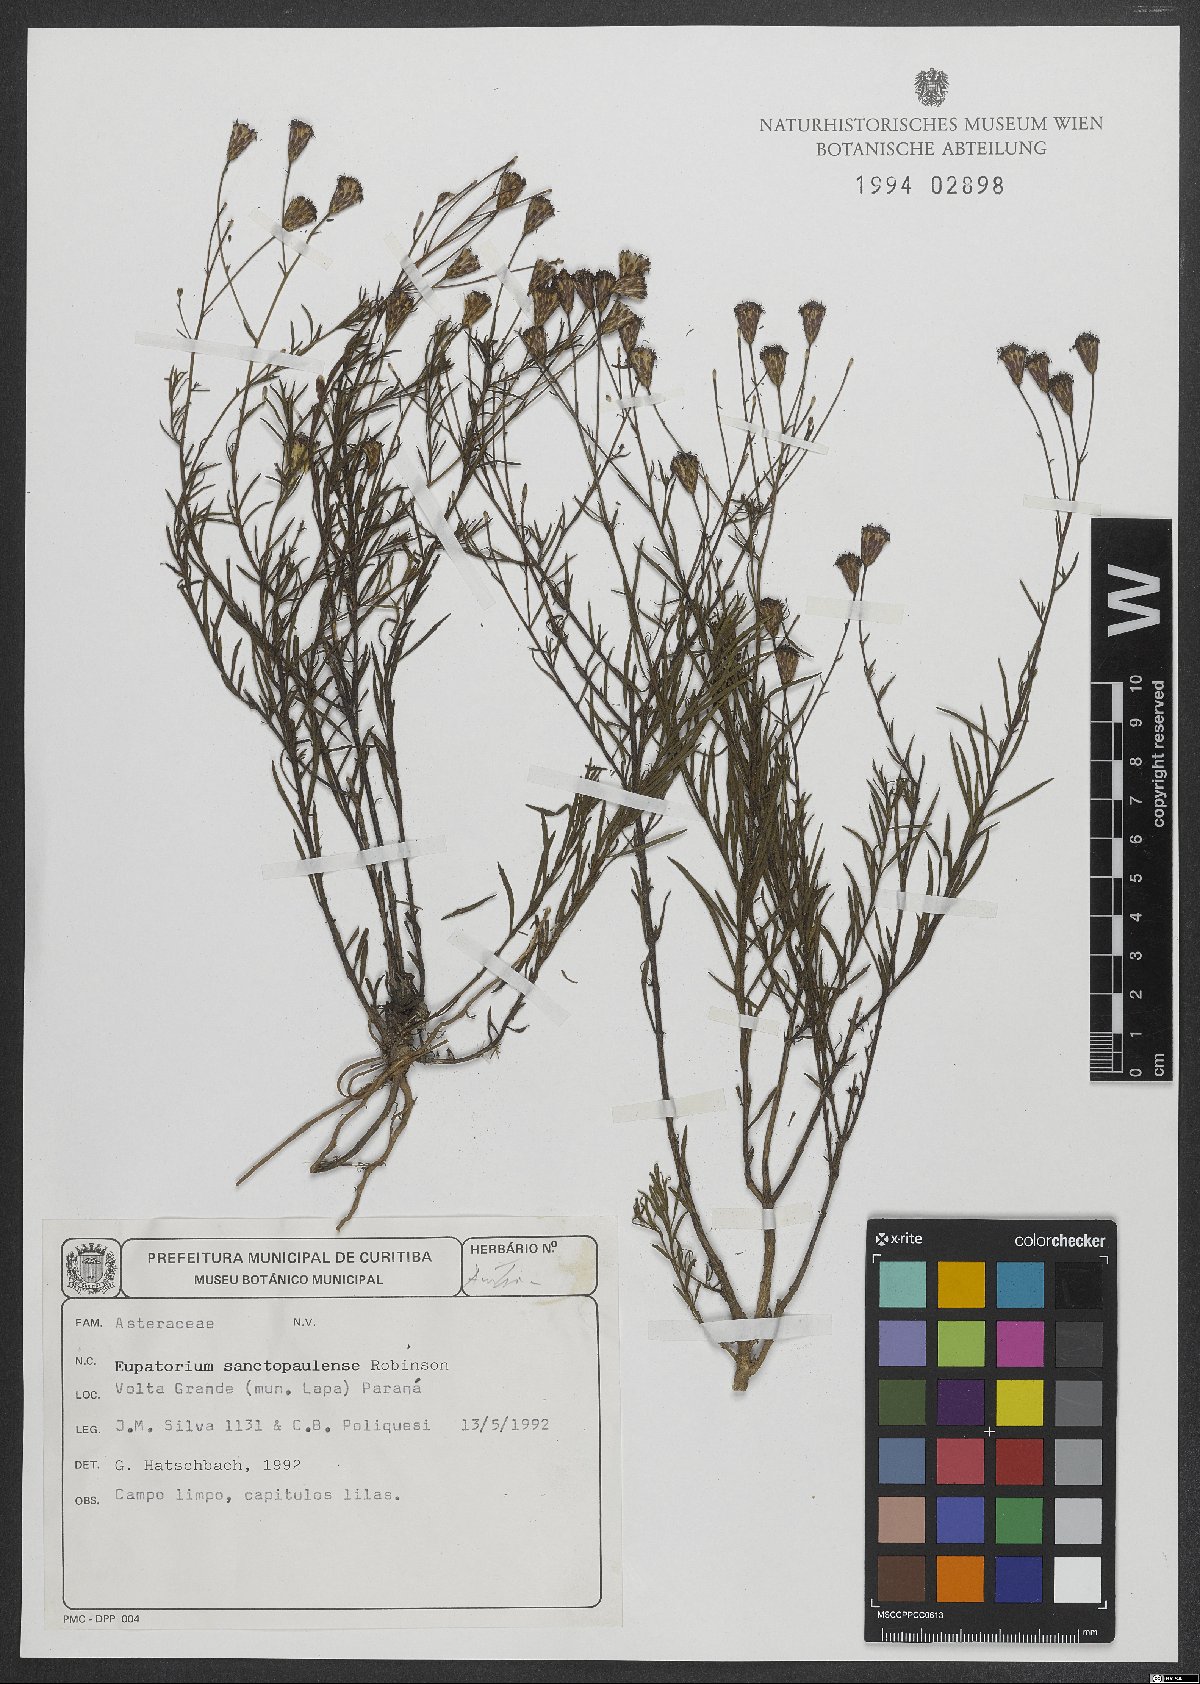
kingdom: Plantae
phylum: Tracheophyta
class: Magnoliopsida
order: Asterales
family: Asteraceae
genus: Praxelis
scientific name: Praxelis sanctopaulensis
